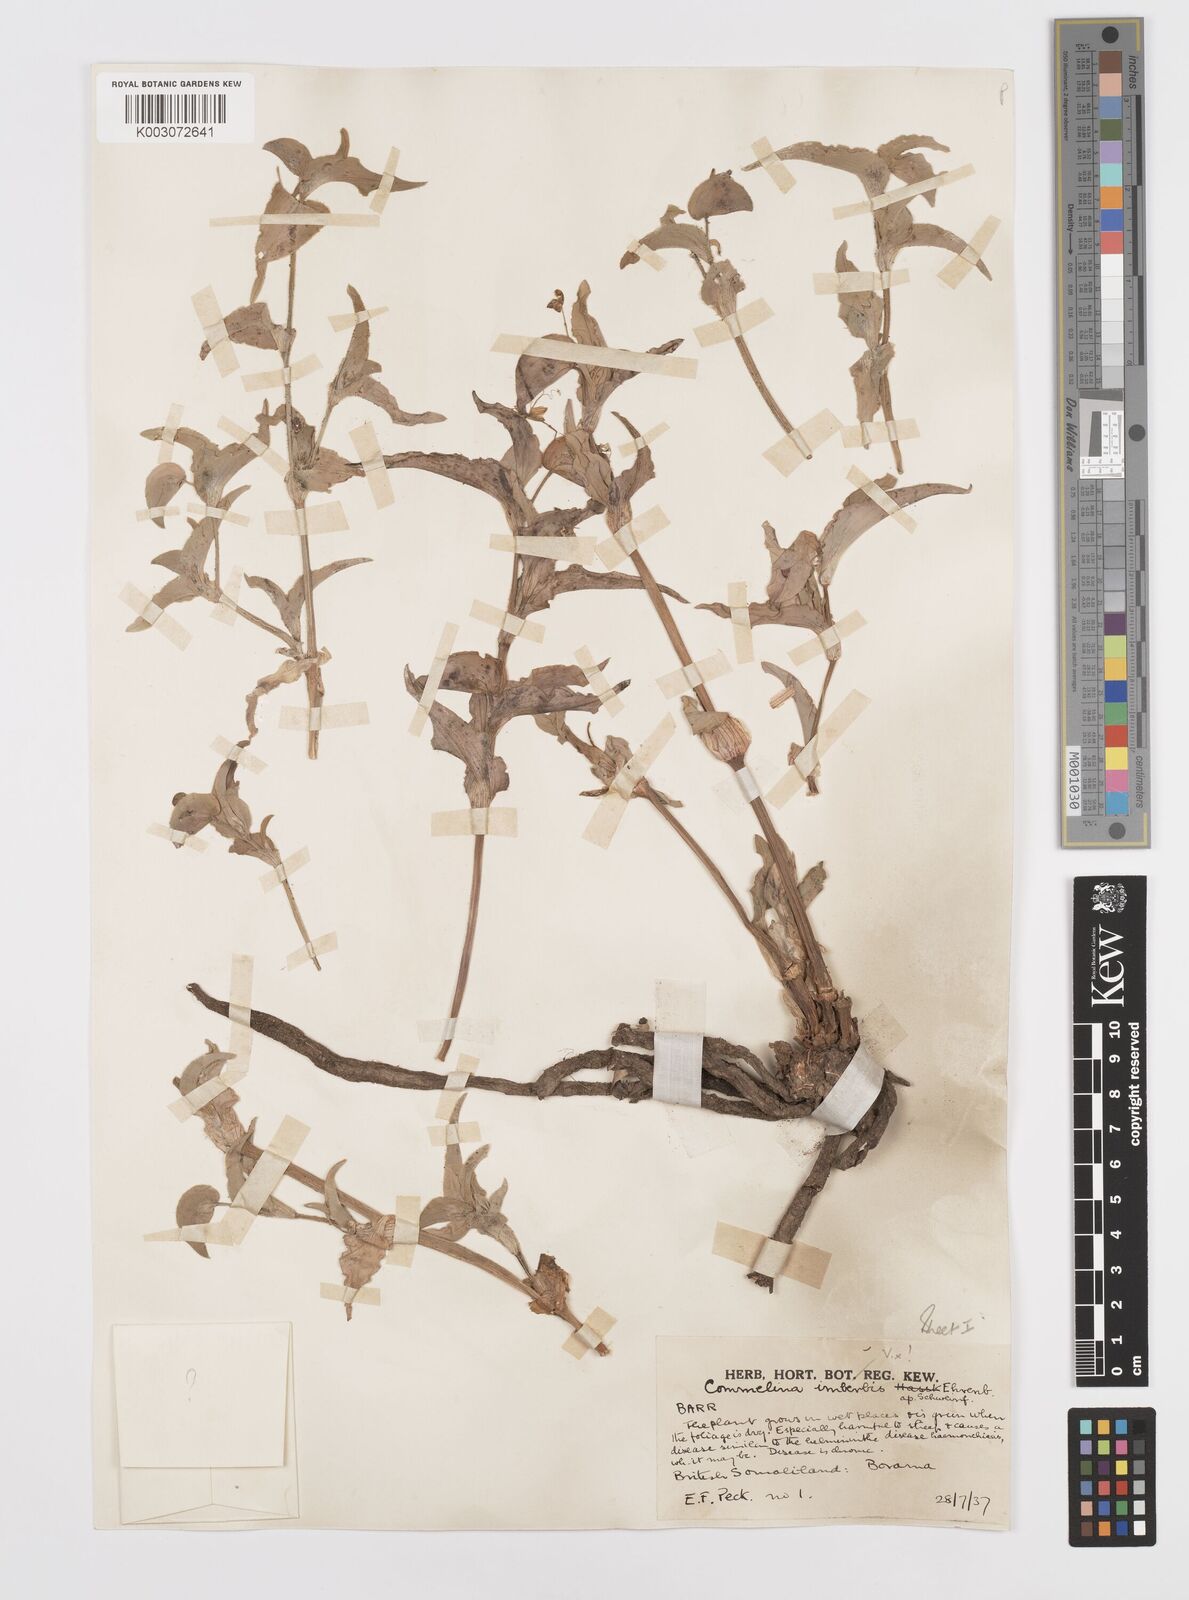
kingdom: Plantae
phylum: Tracheophyta
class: Liliopsida
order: Commelinales
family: Commelinaceae
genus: Commelina
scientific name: Commelina stefaniniana
